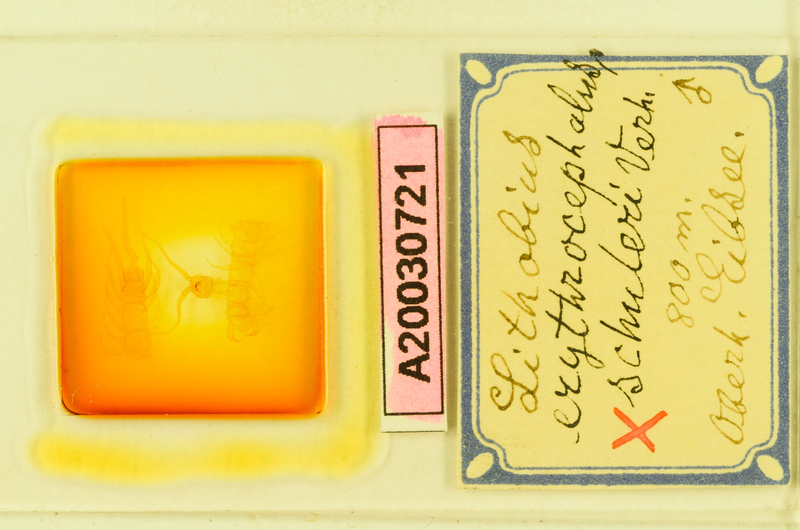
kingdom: Animalia
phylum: Arthropoda
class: Chilopoda
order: Lithobiomorpha
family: Lithobiidae
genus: Lithobius
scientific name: Lithobius erythrocephalus
